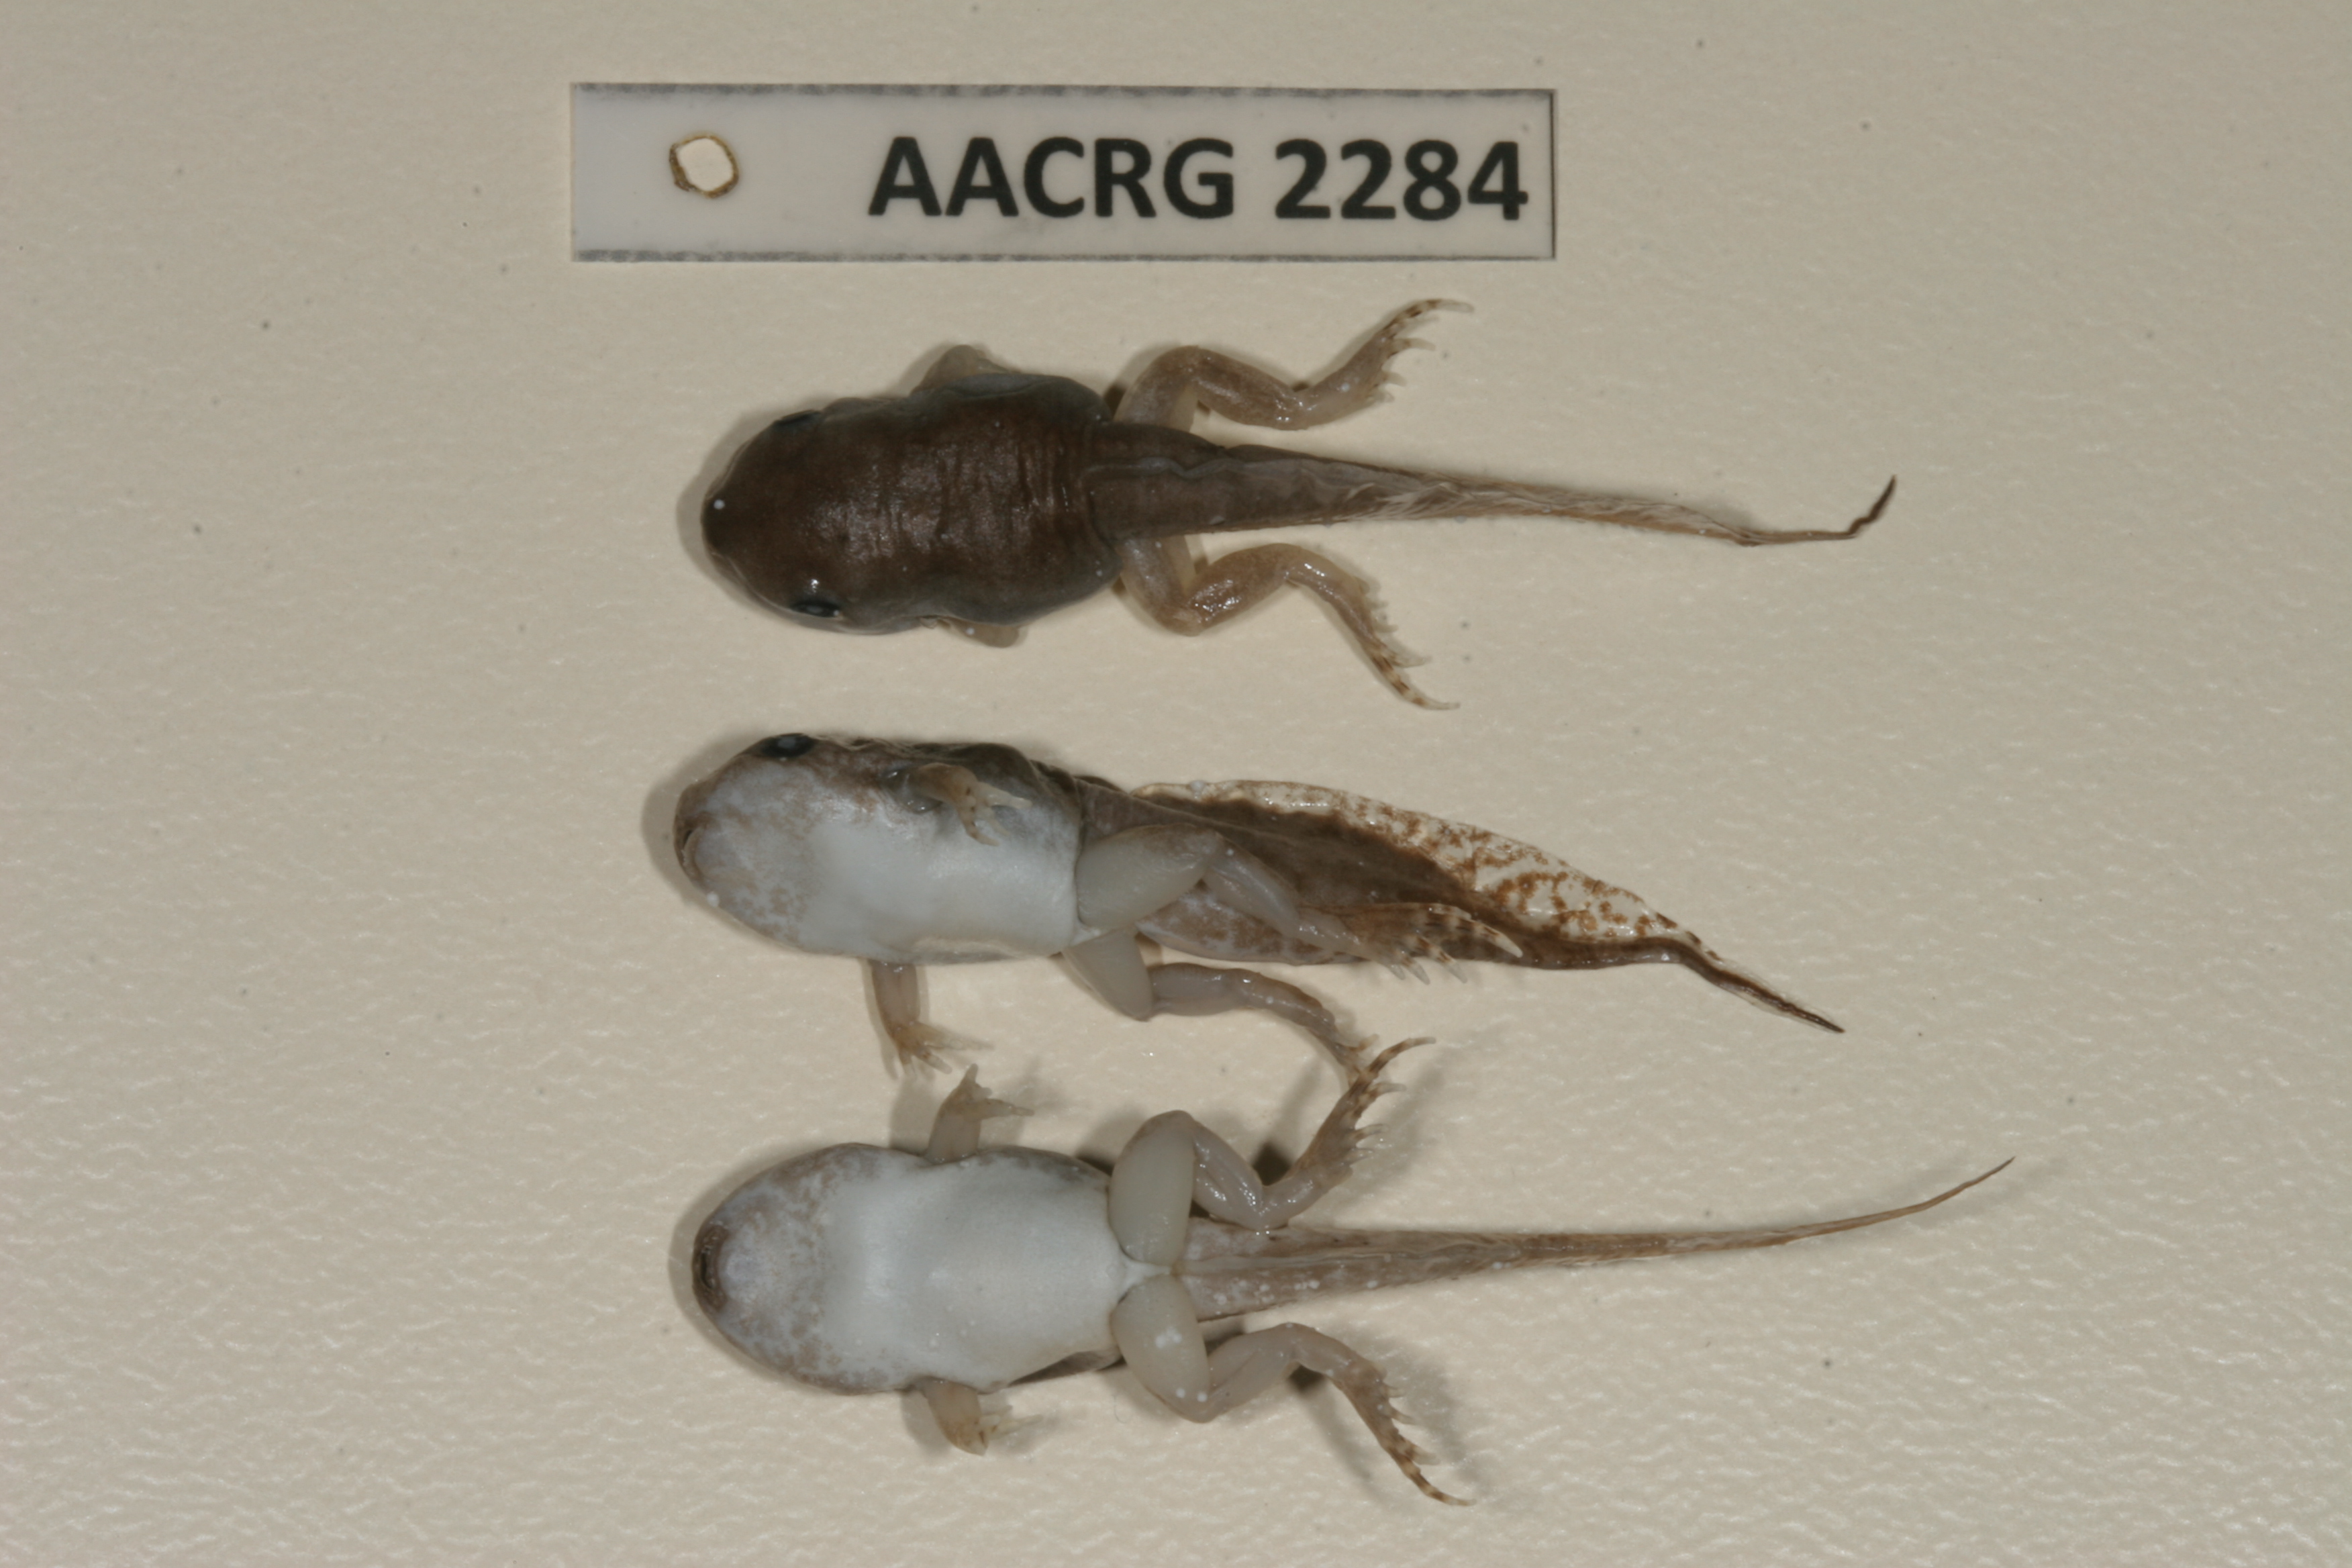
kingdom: Animalia
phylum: Chordata
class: Amphibia
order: Anura
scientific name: Anura
